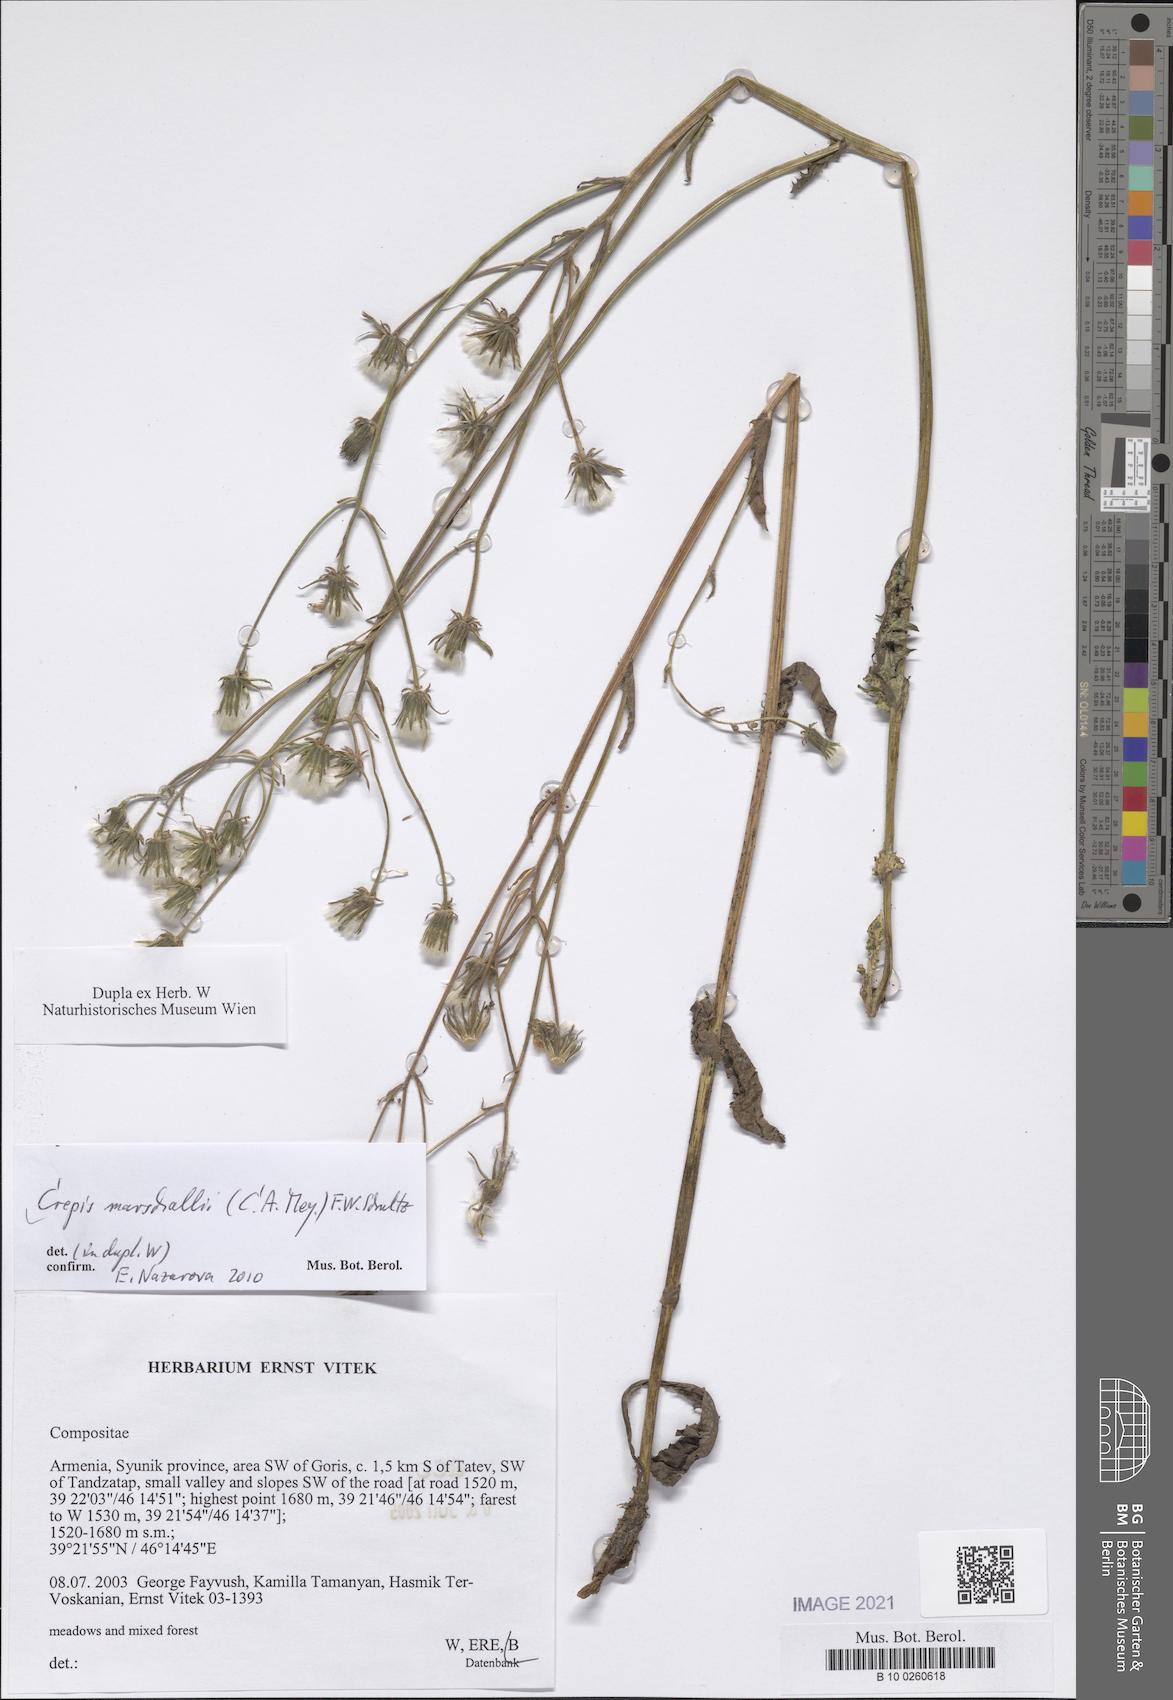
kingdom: Plantae
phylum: Tracheophyta
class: Magnoliopsida
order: Asterales
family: Asteraceae
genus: Crepis
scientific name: Crepis marschallii
